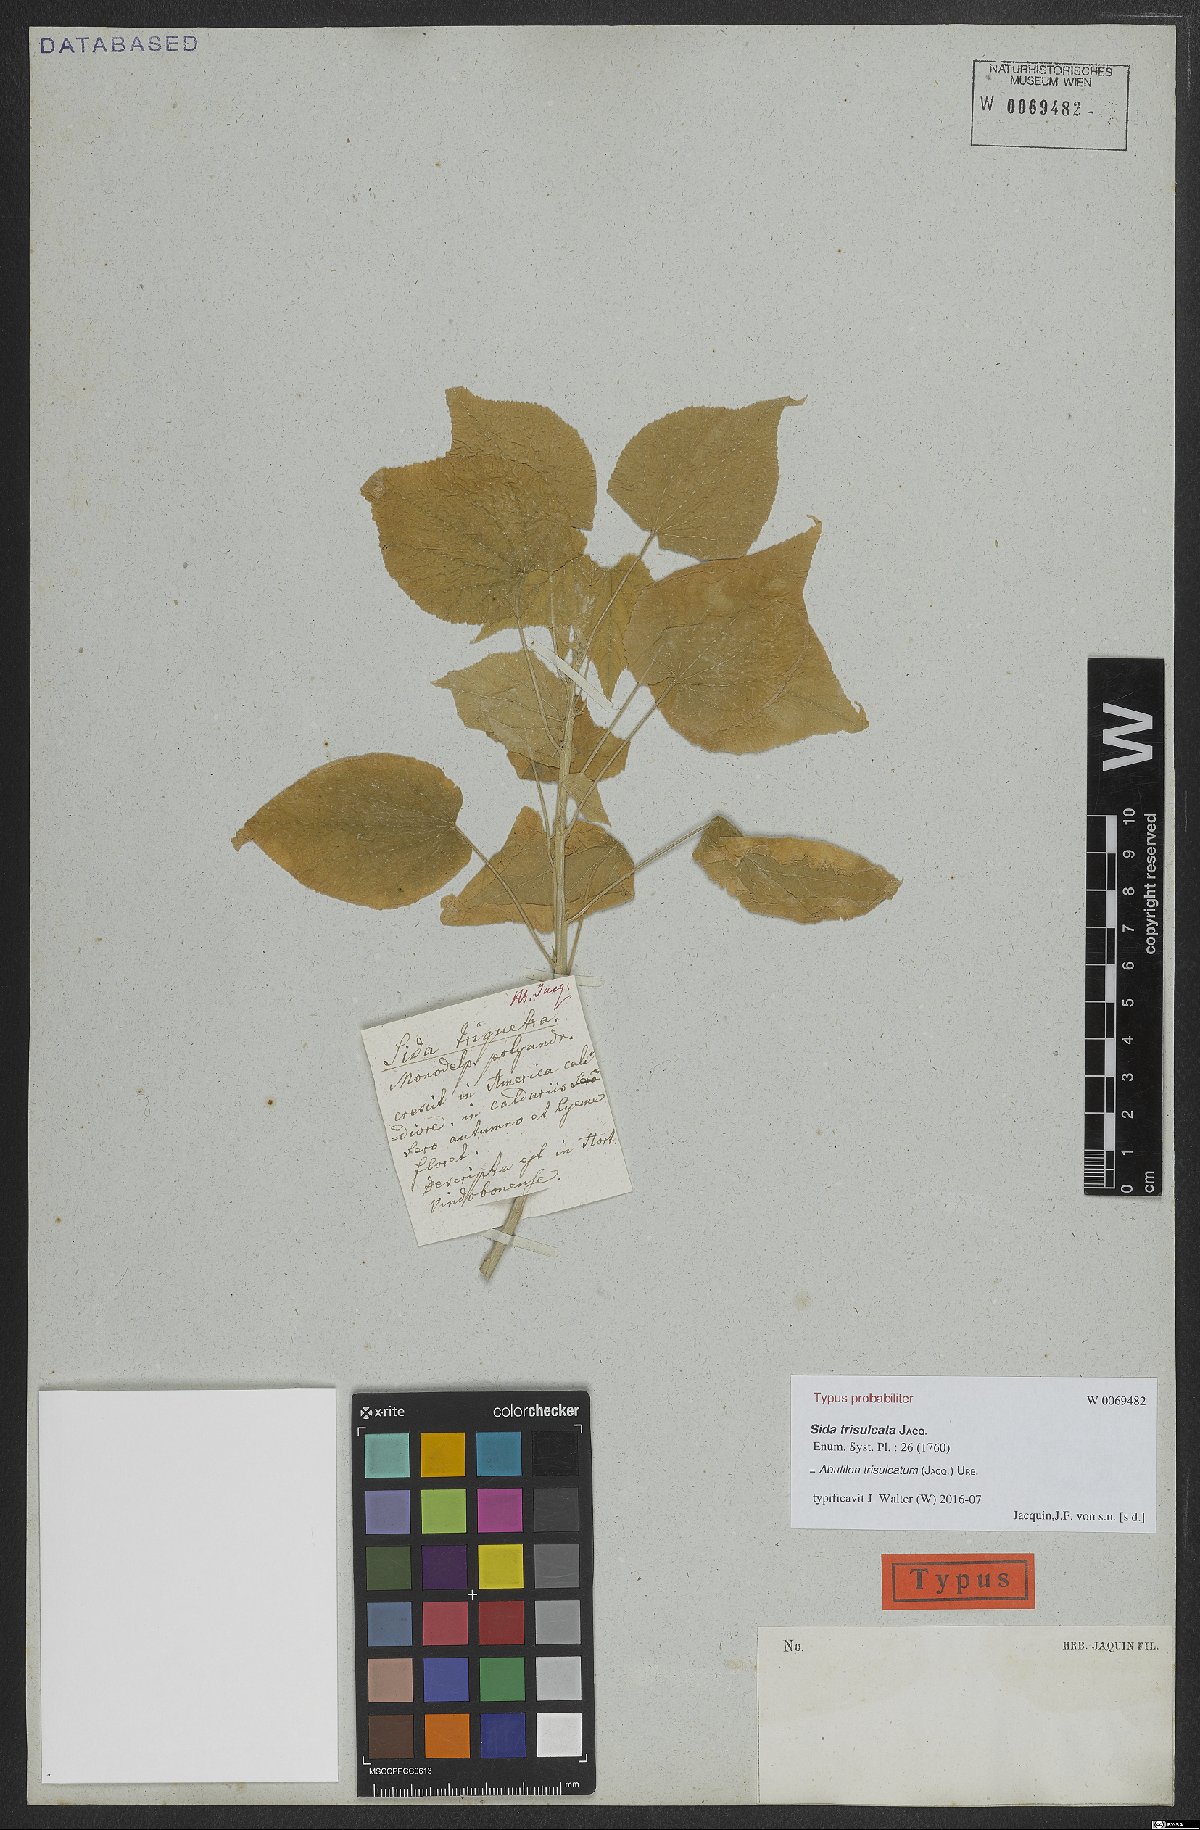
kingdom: Plantae
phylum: Tracheophyta
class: Magnoliopsida
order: Malvales
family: Malvaceae
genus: Abutilon
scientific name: Abutilon trisulcatum
